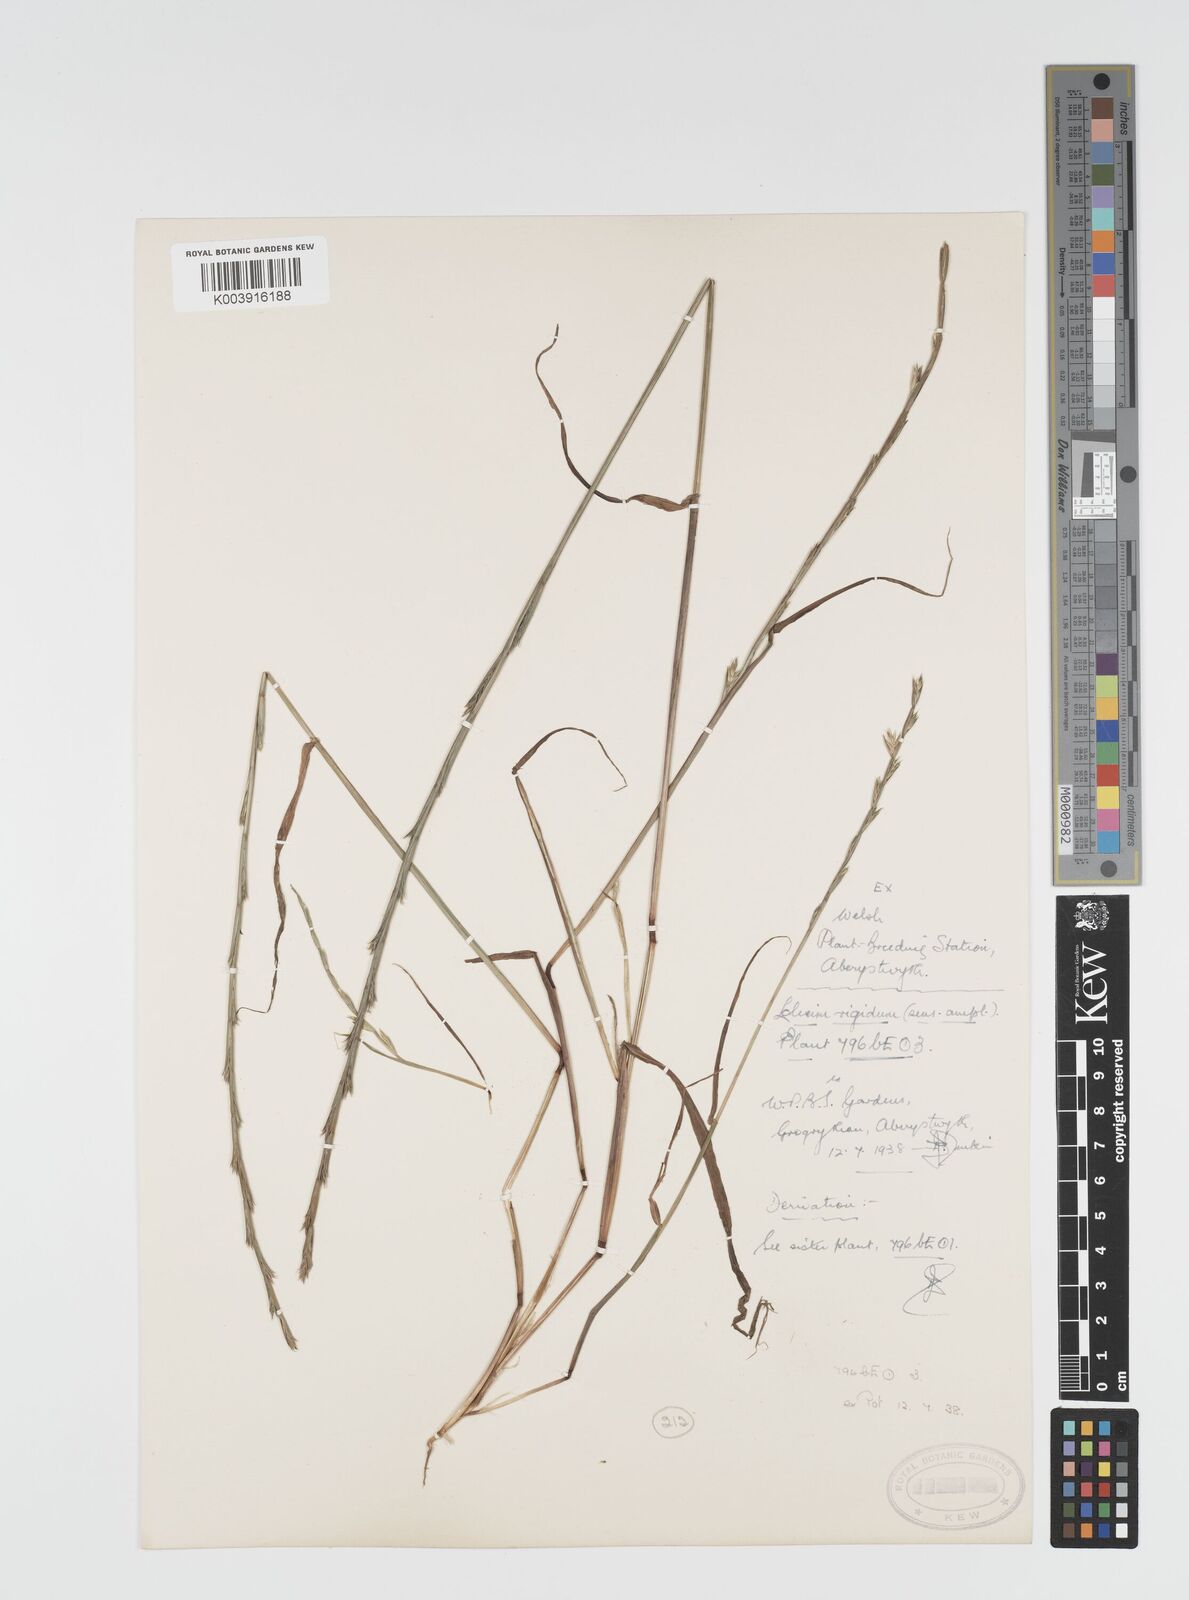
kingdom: Plantae
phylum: Tracheophyta
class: Liliopsida
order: Poales
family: Poaceae
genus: Lolium
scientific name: Lolium rigidum
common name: Wimmera ryegrass
